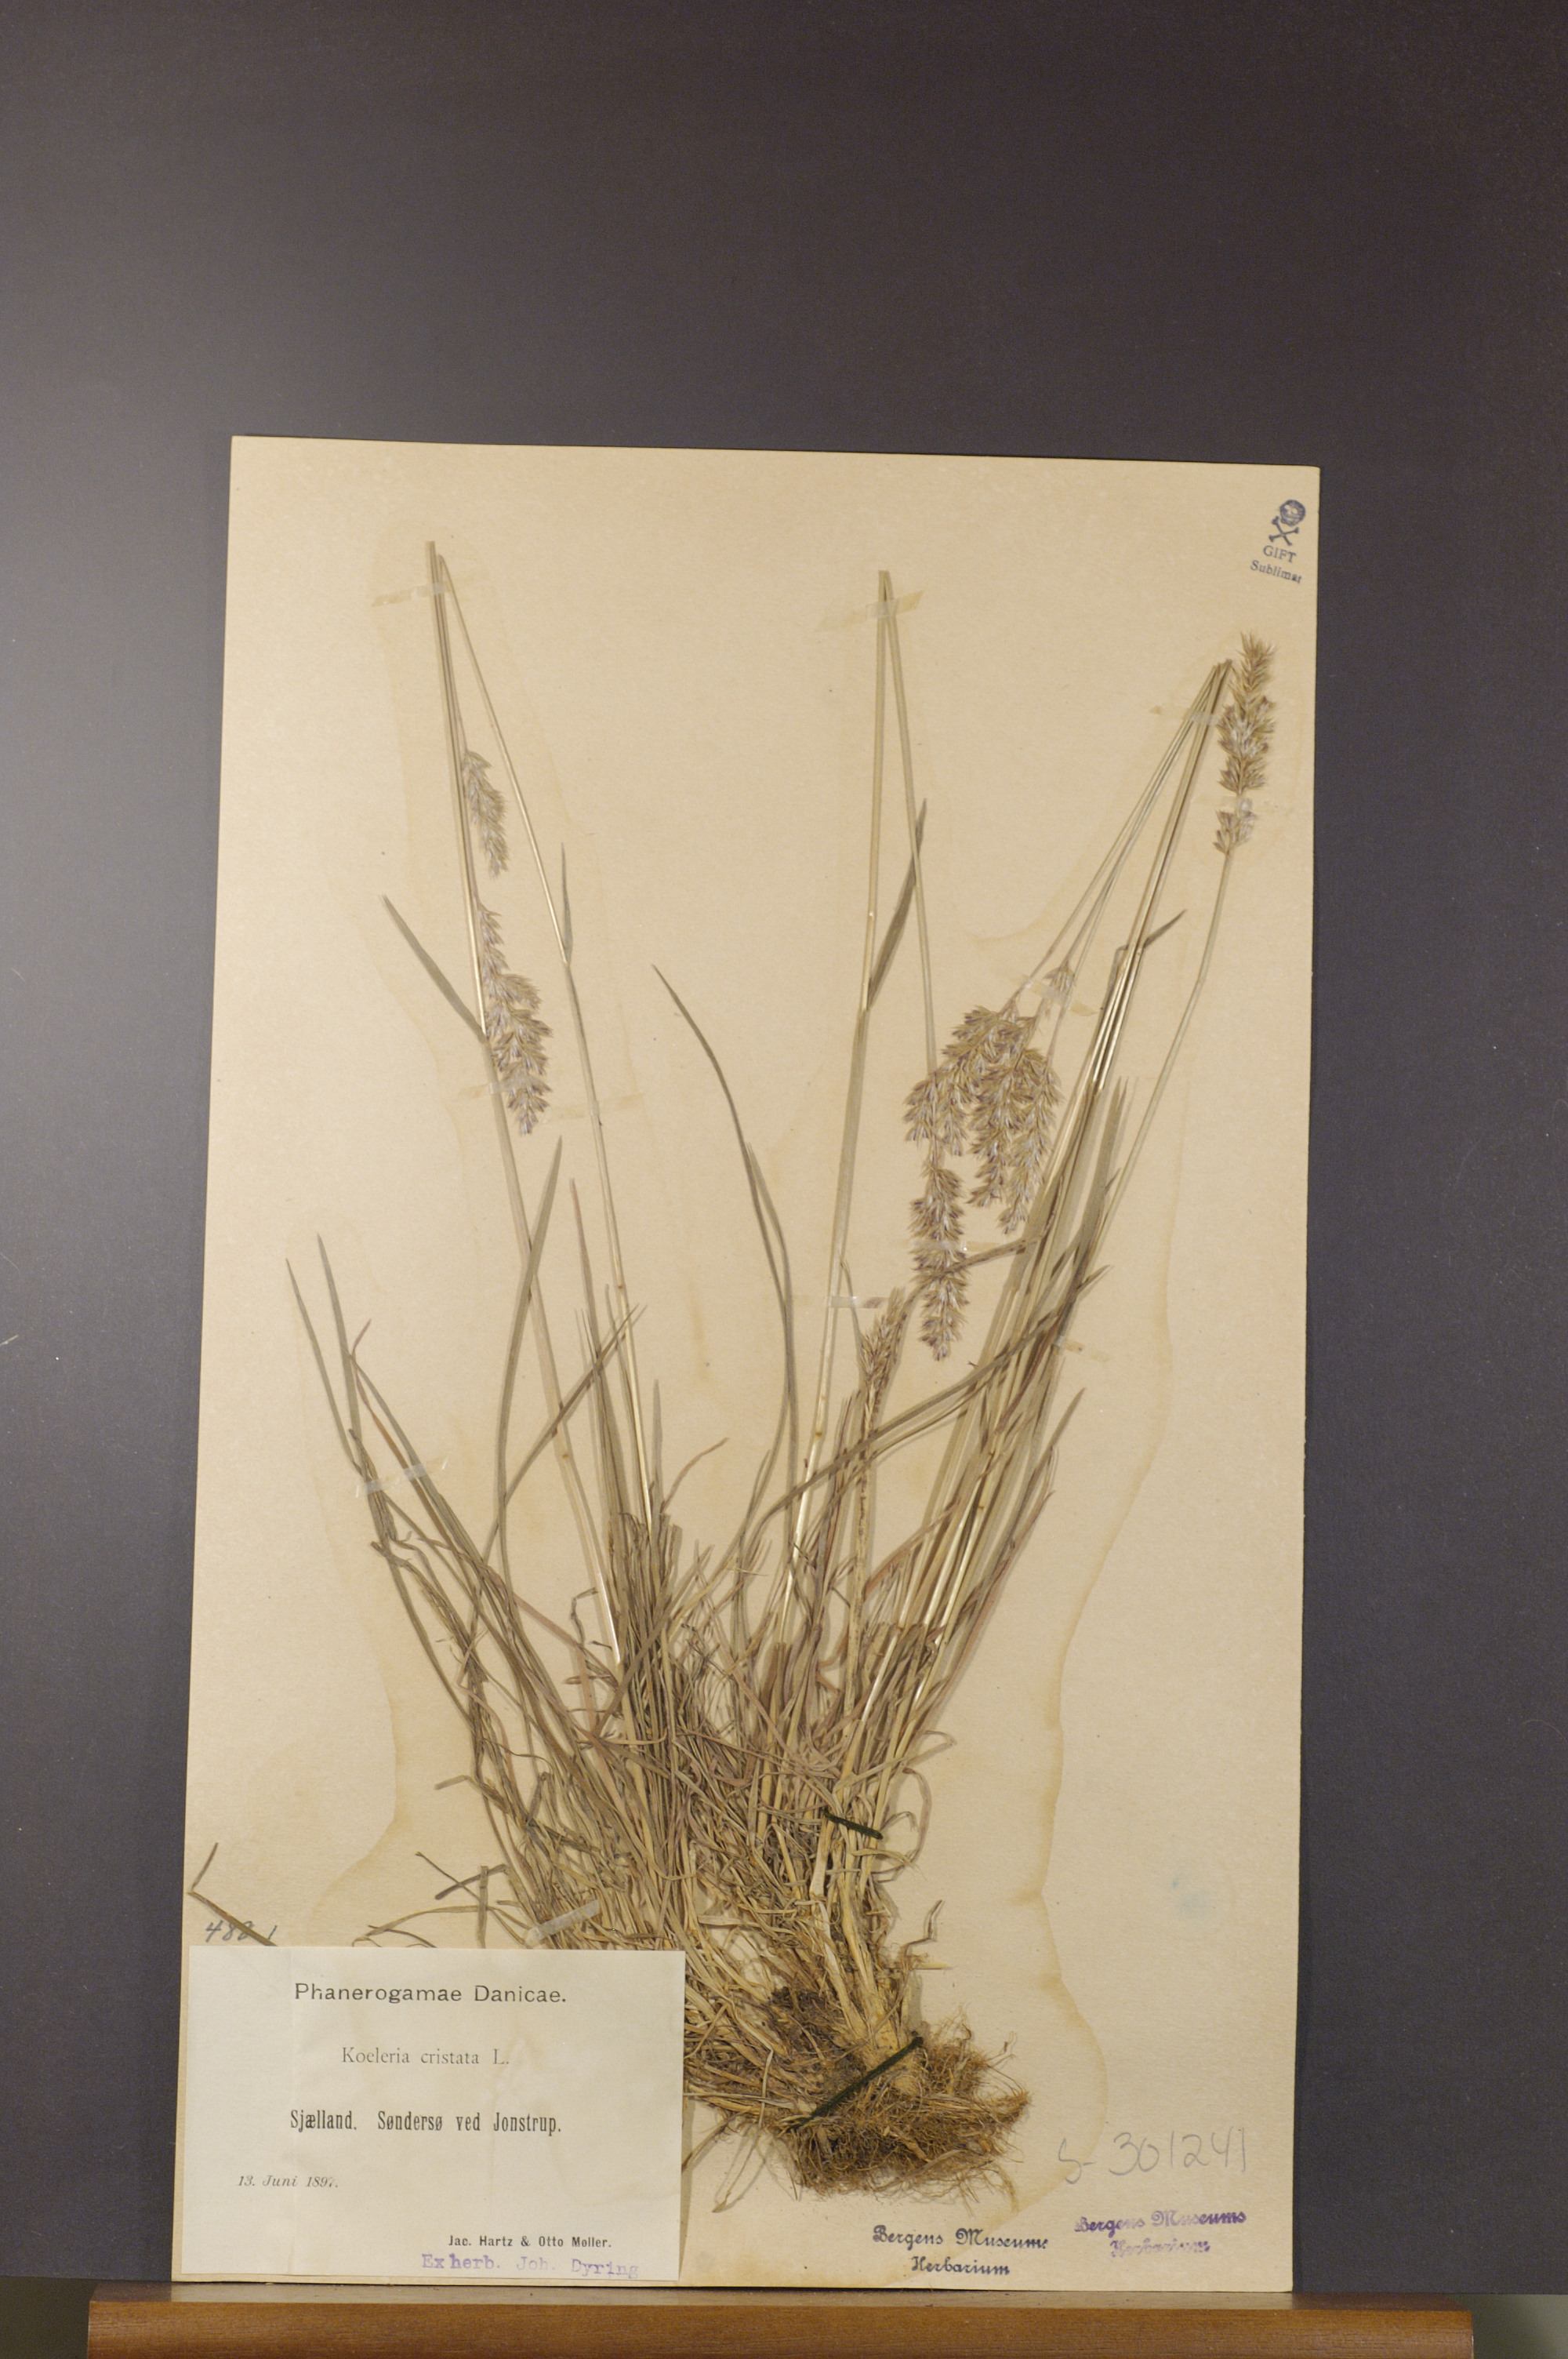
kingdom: Plantae
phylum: Tracheophyta
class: Liliopsida
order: Poales
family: Poaceae
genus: Koeleria
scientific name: Koeleria pyramidata
